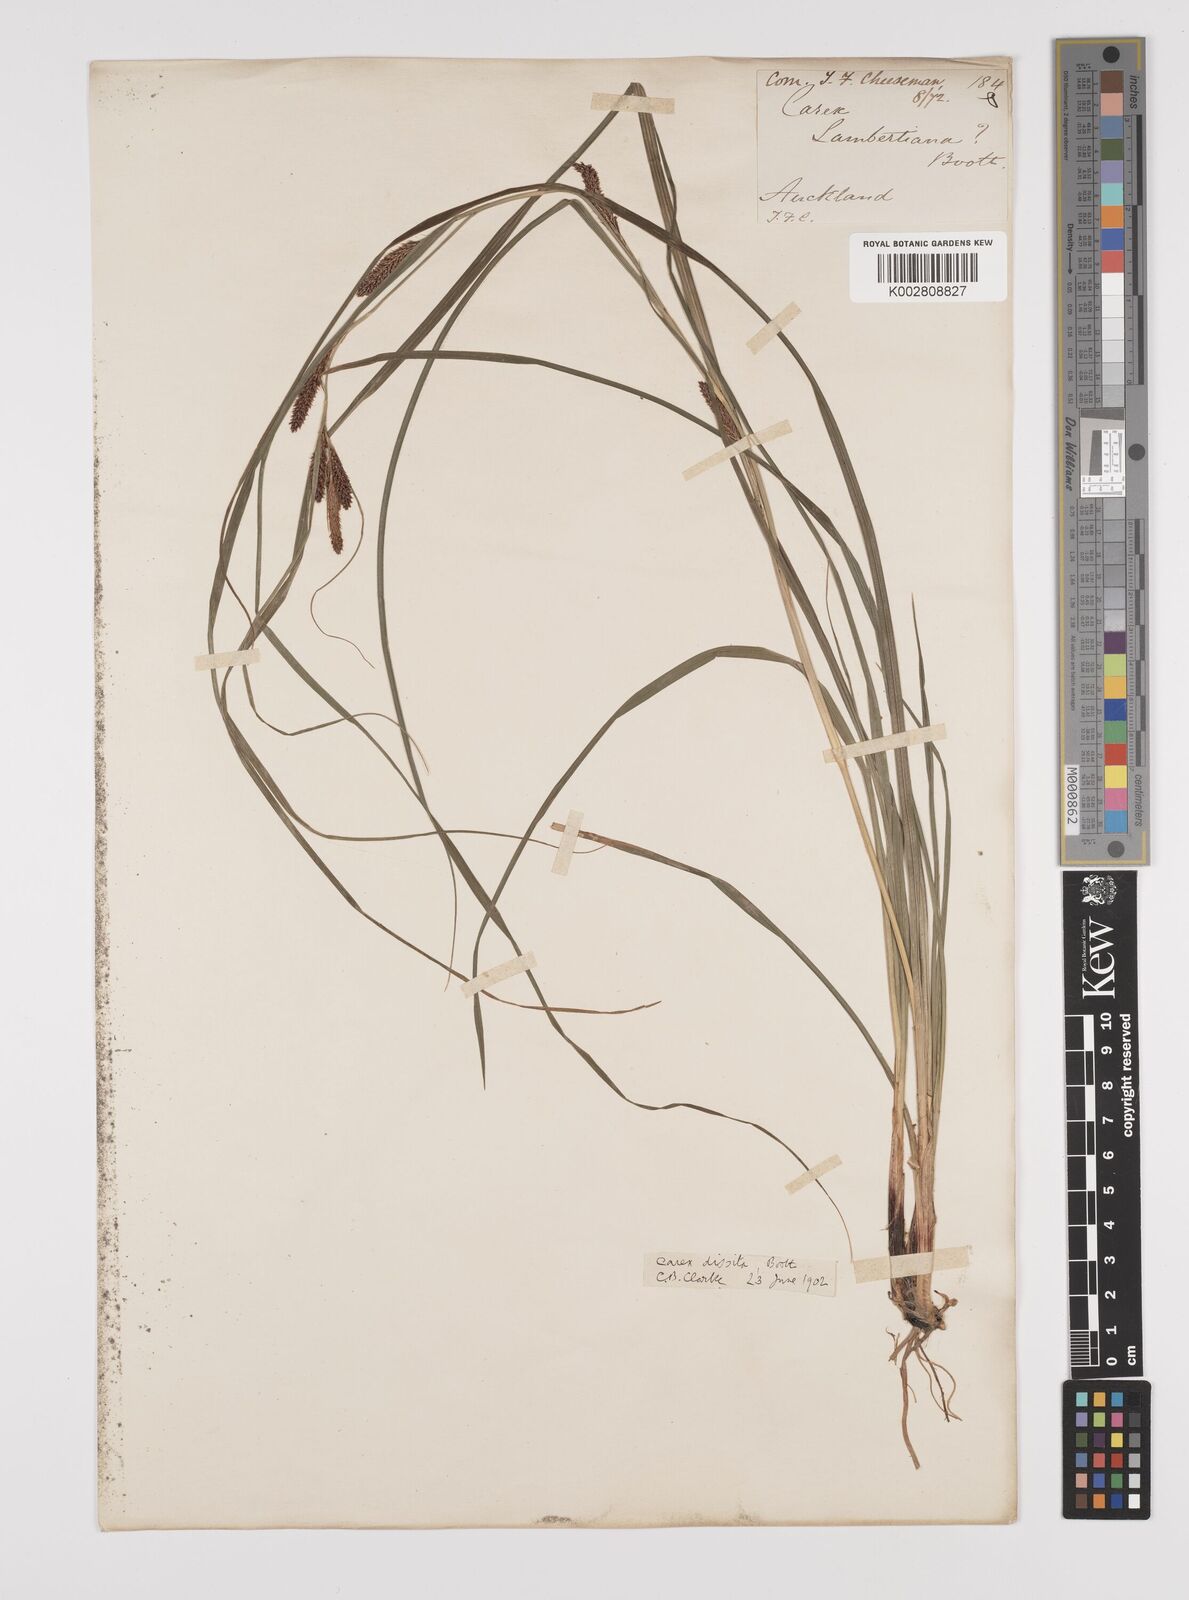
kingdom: Plantae
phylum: Tracheophyta
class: Liliopsida
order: Poales
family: Cyperaceae
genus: Carex
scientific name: Carex dissita
